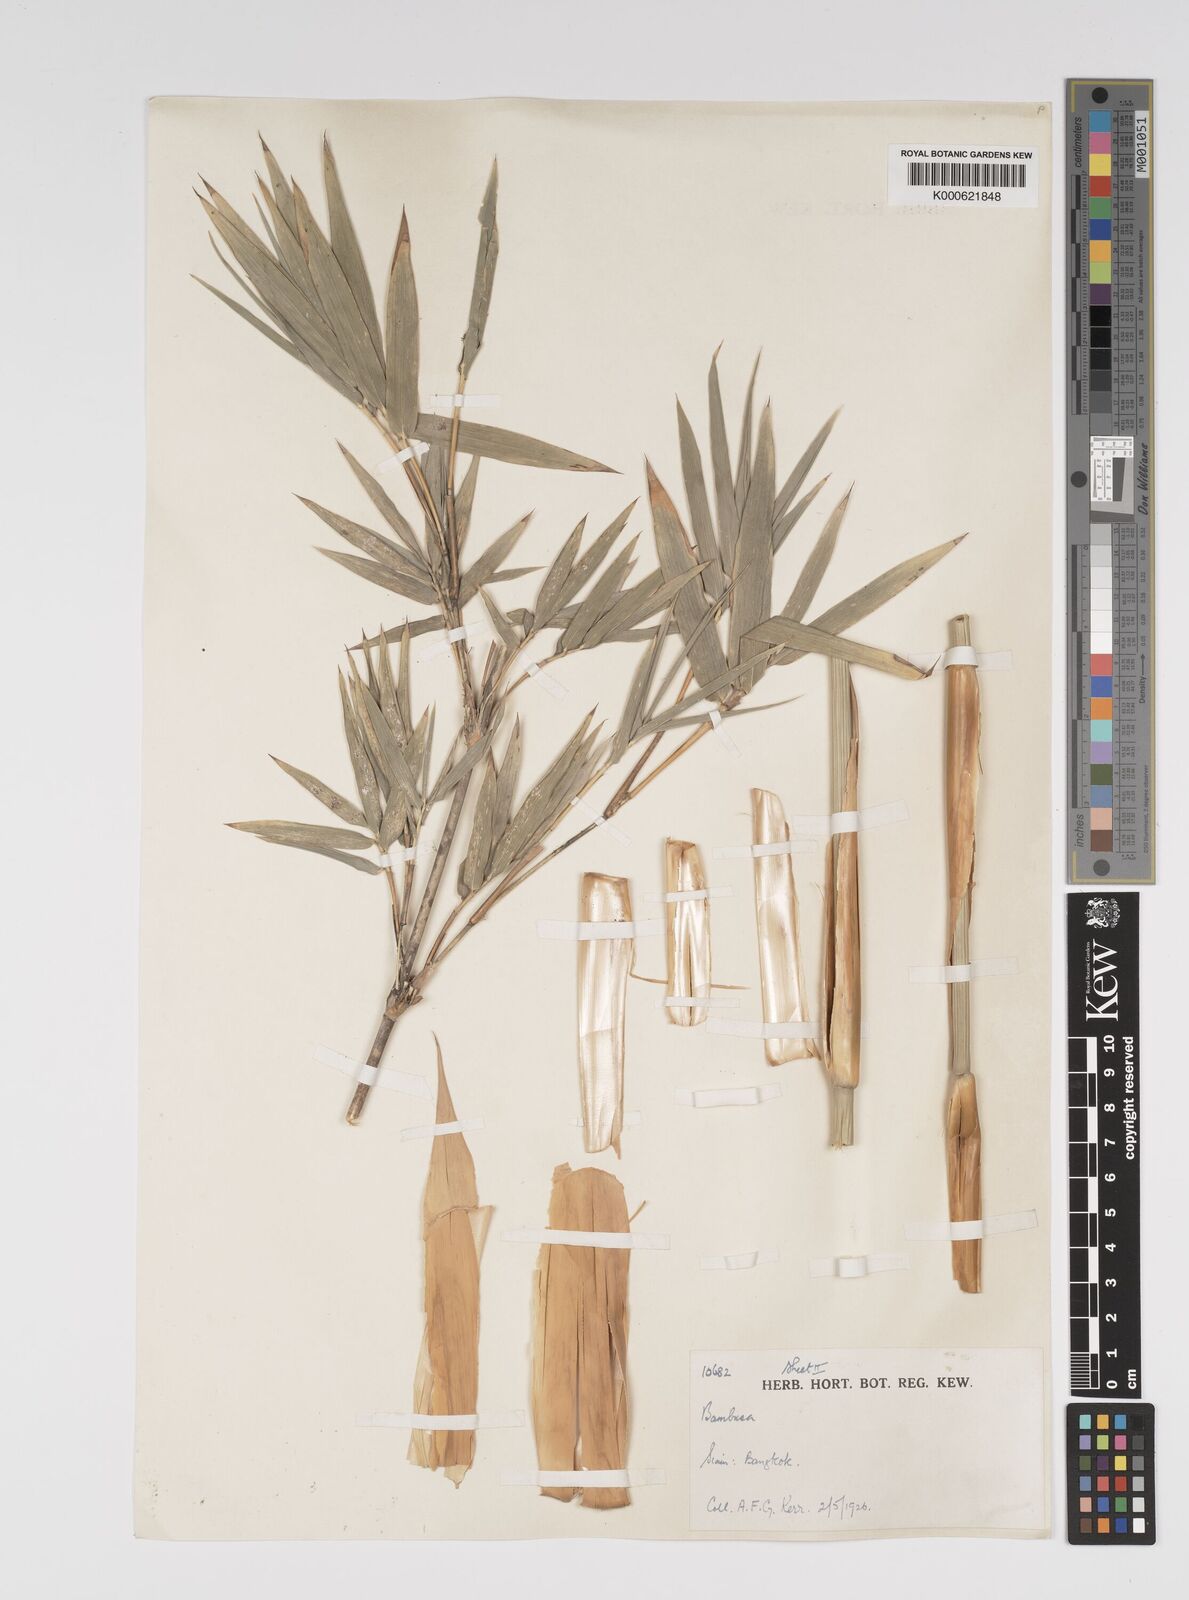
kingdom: Plantae
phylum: Tracheophyta
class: Liliopsida
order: Poales
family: Poaceae
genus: Bambusa
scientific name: Bambusa multiplex
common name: Hedge bamboo
